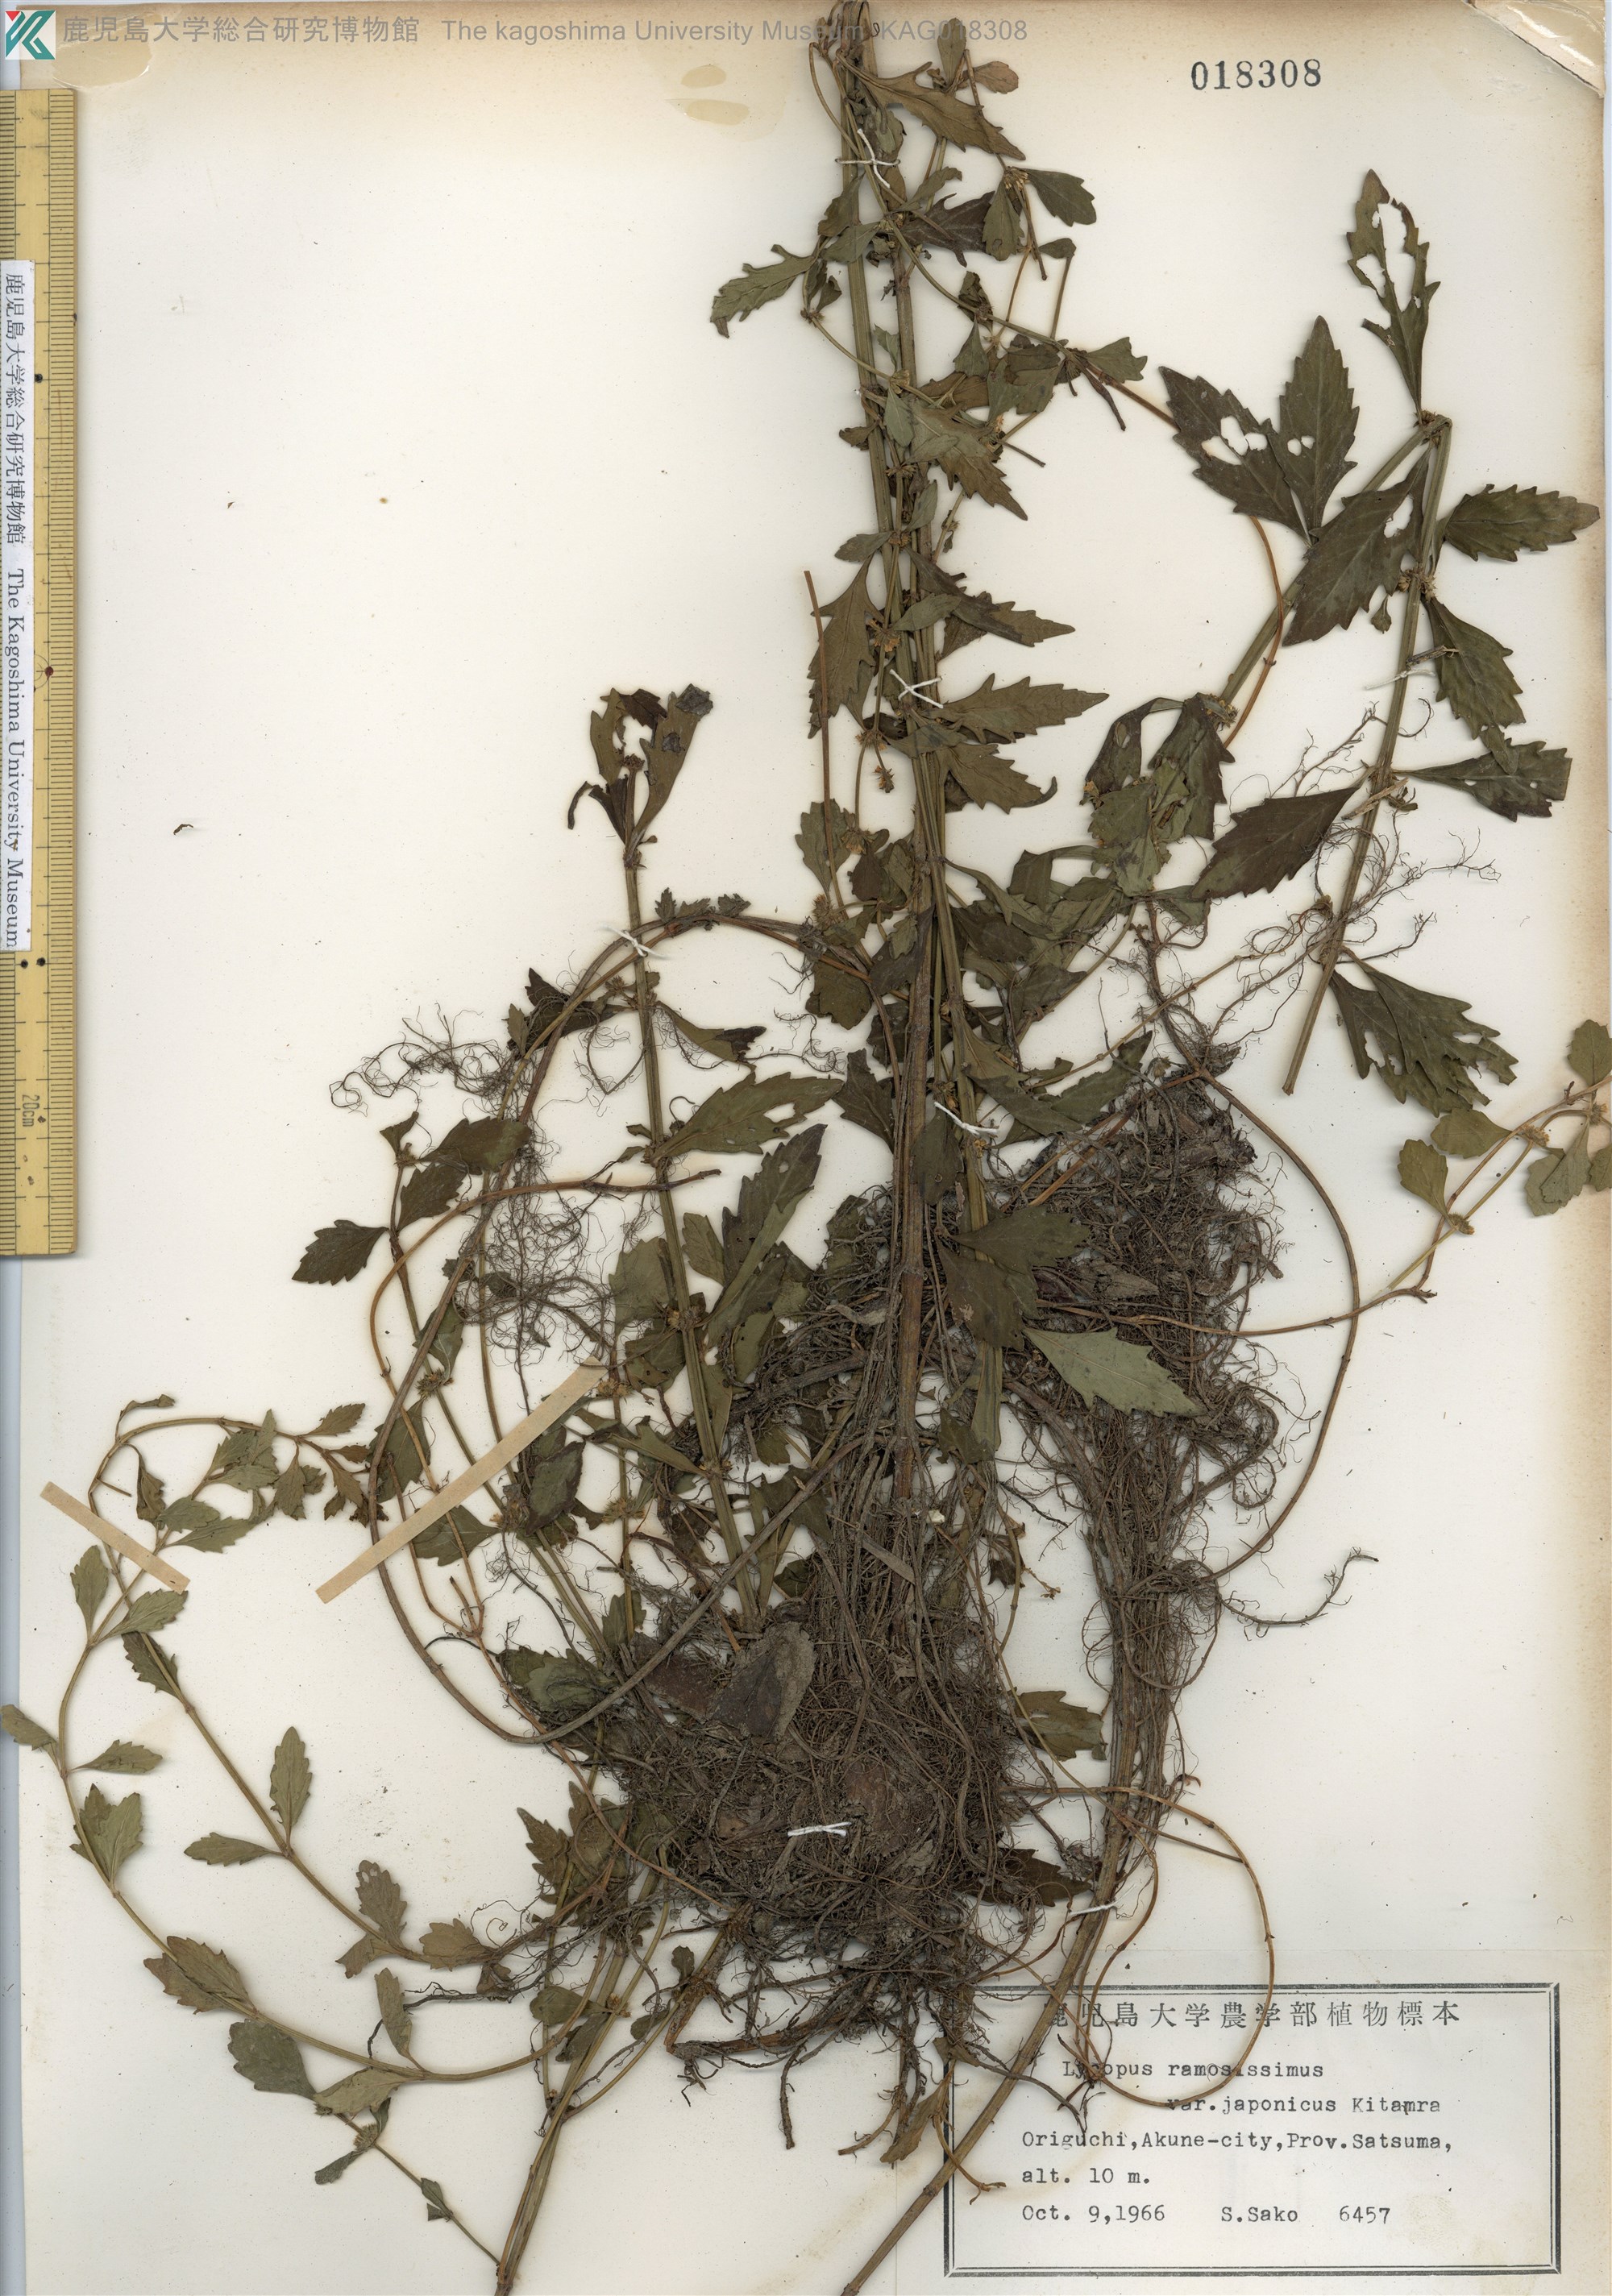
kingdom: Plantae
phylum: Tracheophyta
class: Magnoliopsida
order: Lamiales
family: Lamiaceae
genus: Lycopus
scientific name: Lycopus cavaleriei
